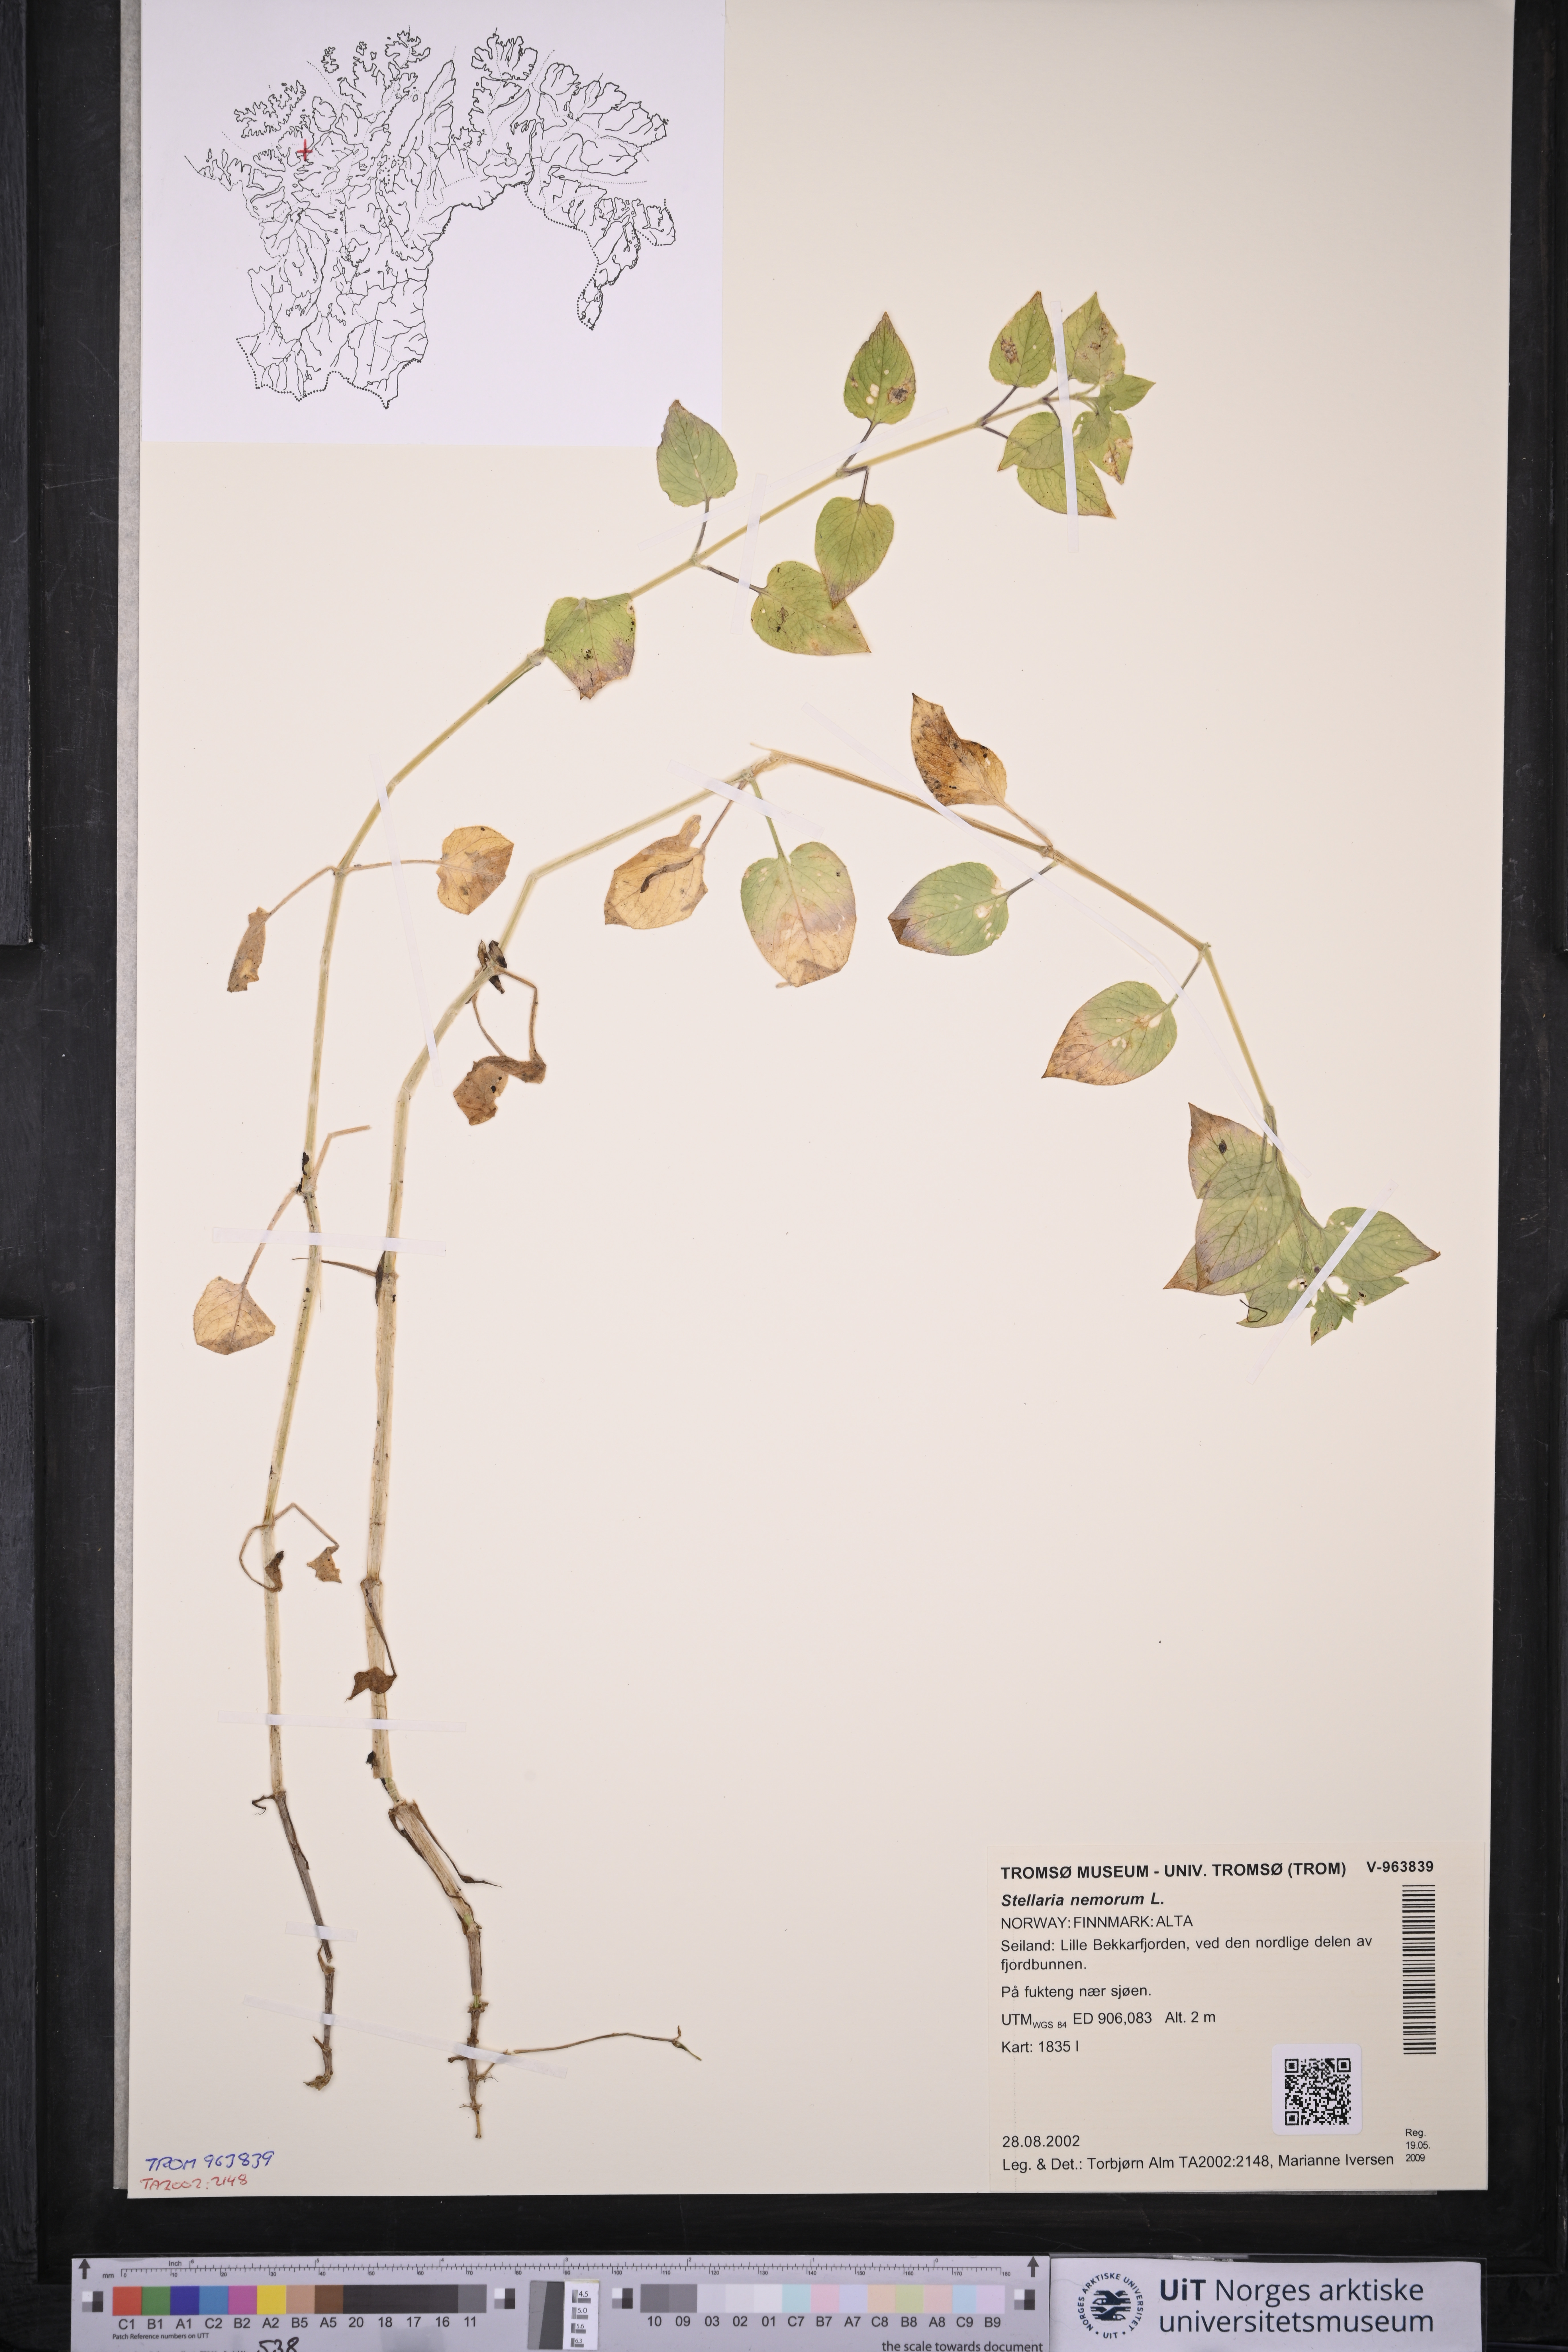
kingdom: Plantae
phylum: Tracheophyta
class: Magnoliopsida
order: Caryophyllales
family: Caryophyllaceae
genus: Stellaria
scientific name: Stellaria nemorum
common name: Wood stitchwort
